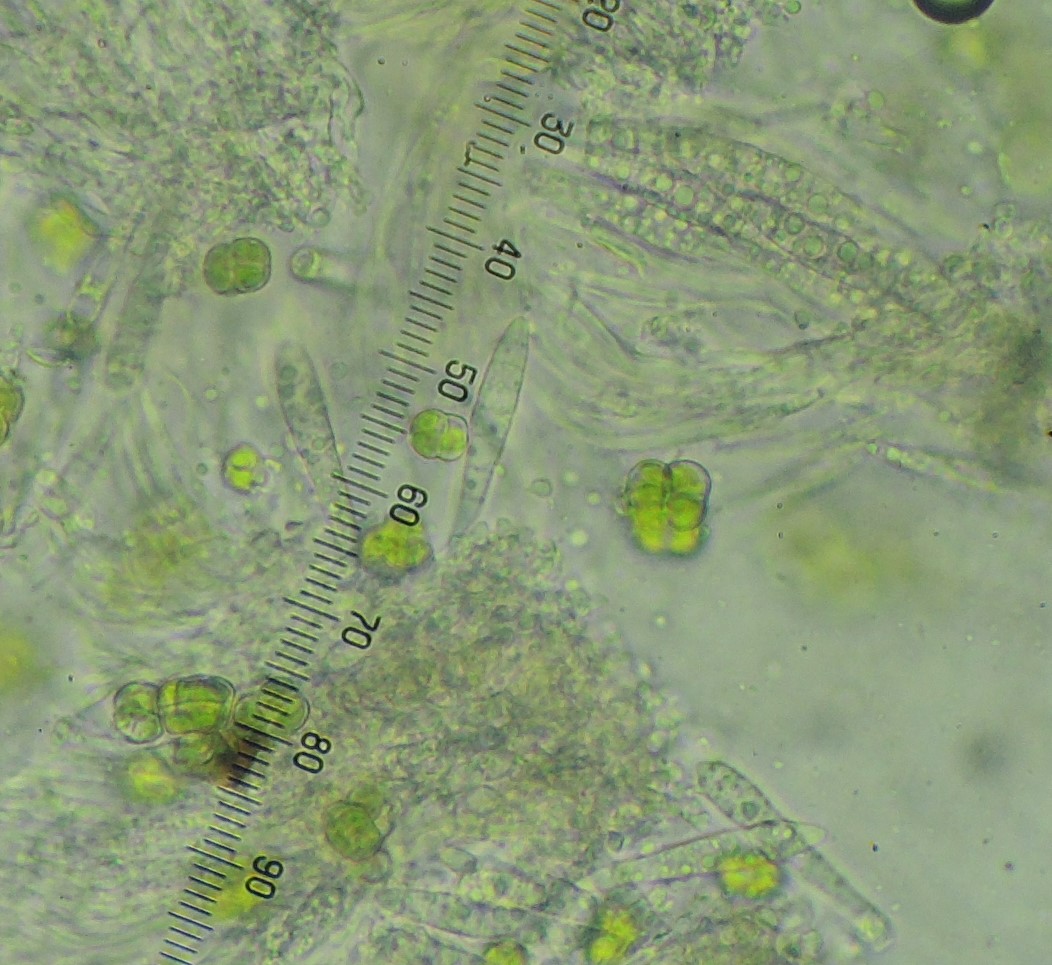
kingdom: Fungi
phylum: Ascomycota
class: Lecanoromycetes
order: Ostropales
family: Stictidaceae
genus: Karstenia
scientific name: Karstenia rhopaloides
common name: grårosa barkhul
